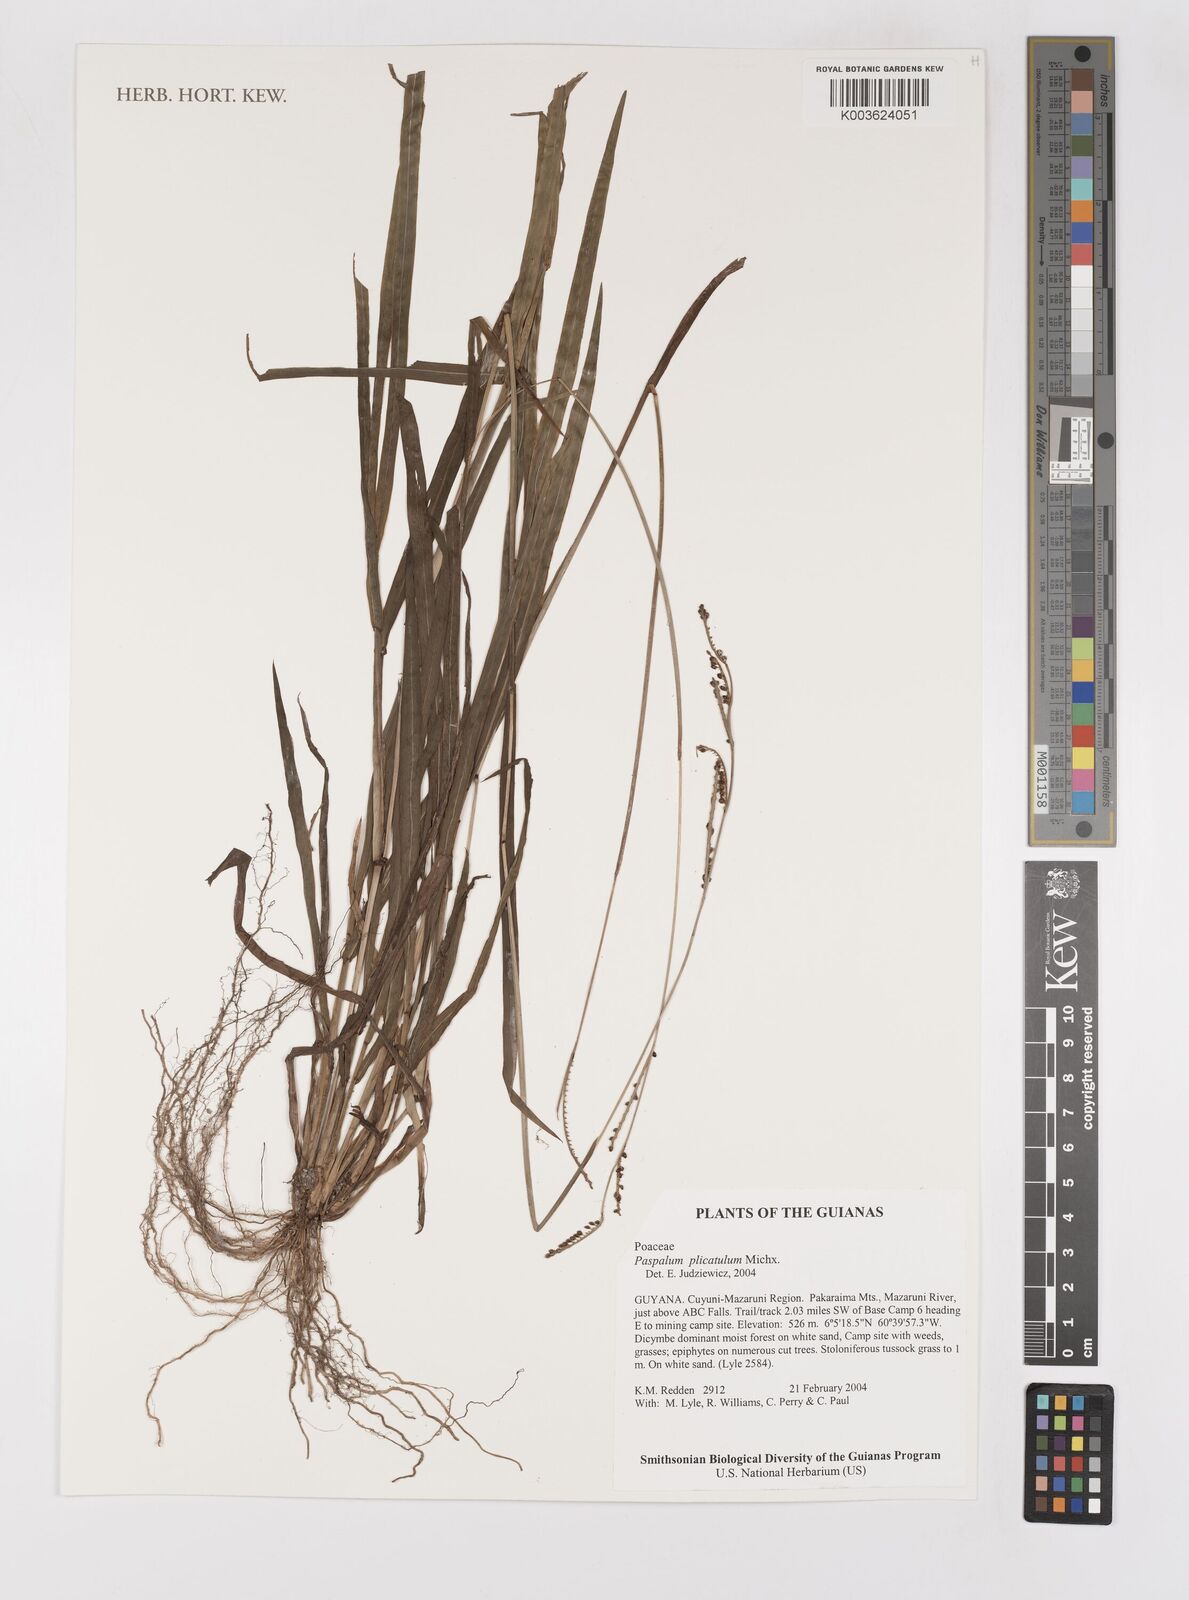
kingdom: Plantae
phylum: Tracheophyta
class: Liliopsida
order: Poales
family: Poaceae
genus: Paspalum
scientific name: Paspalum plicatulum
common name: Top paspalum
